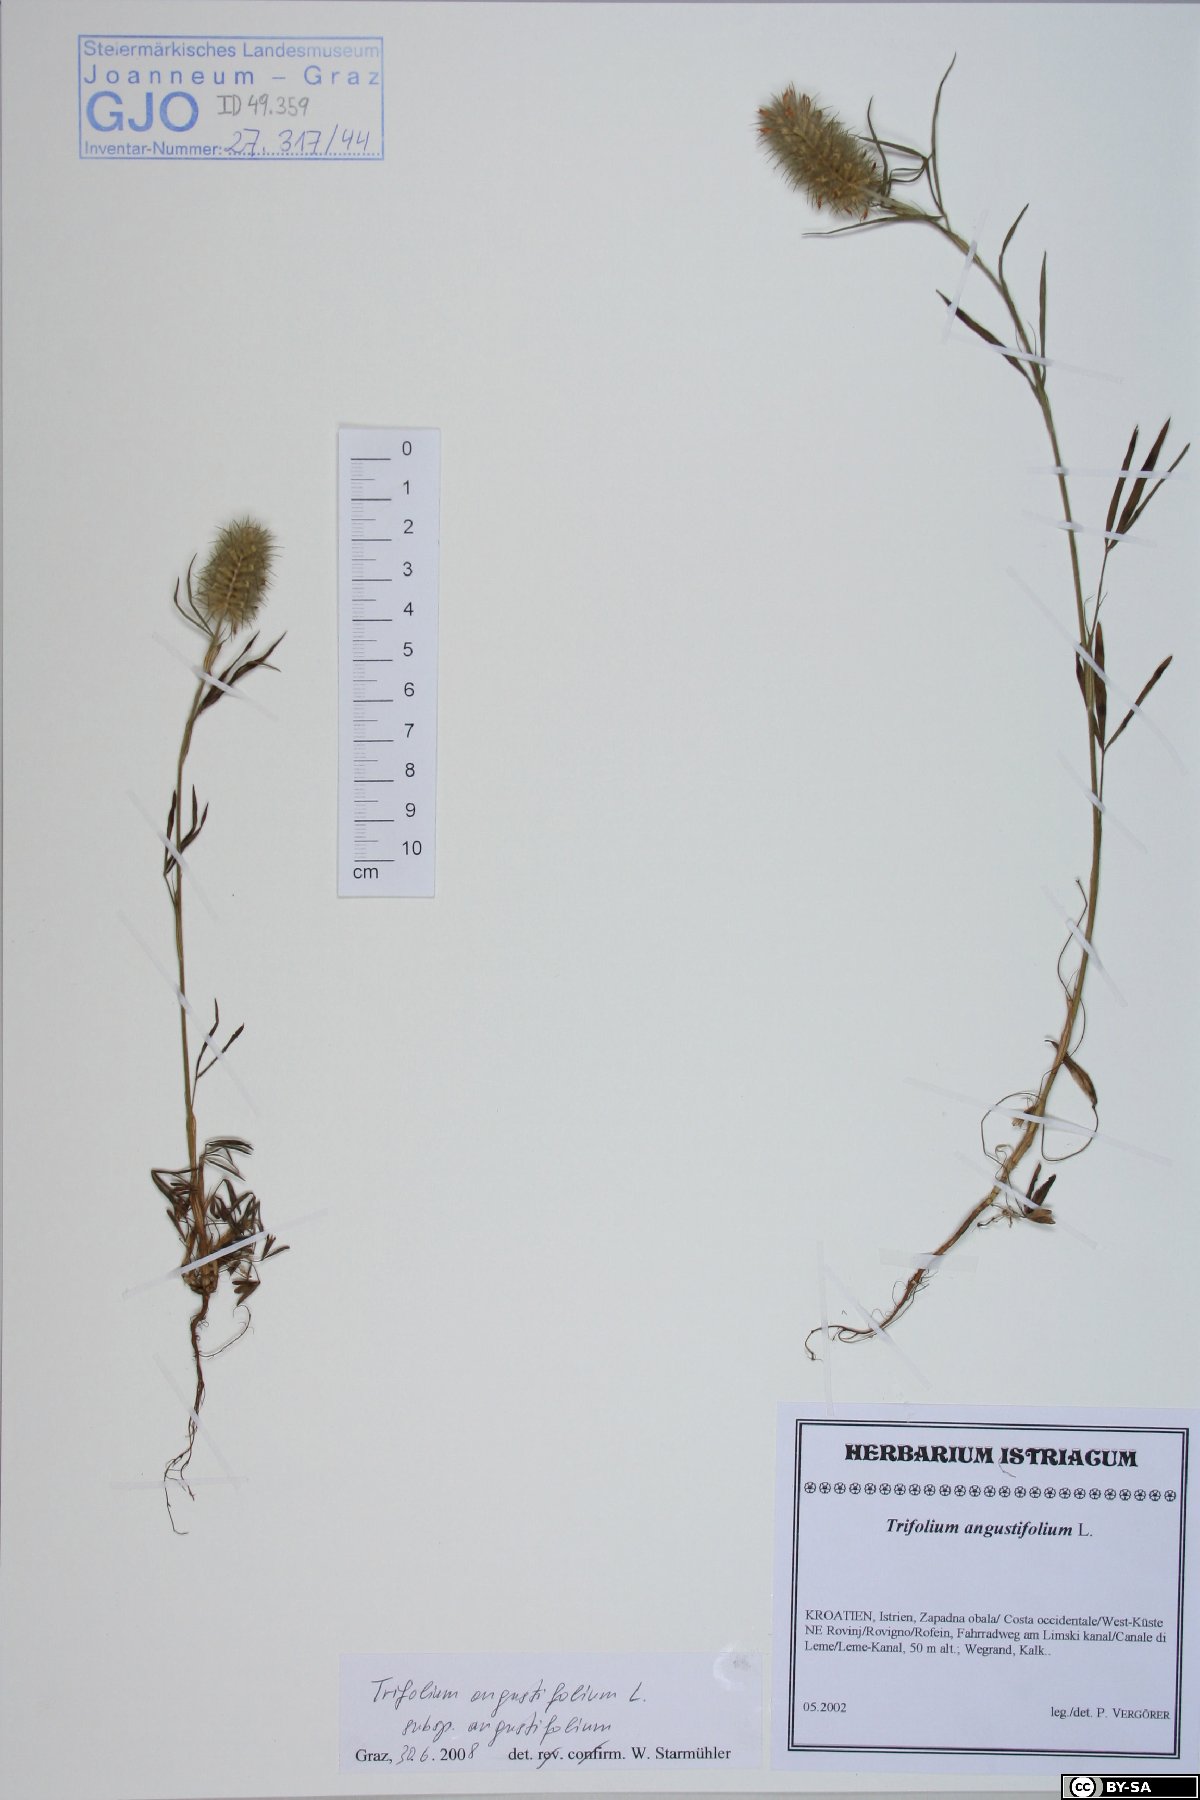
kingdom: Plantae
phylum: Tracheophyta
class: Magnoliopsida
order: Fabales
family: Fabaceae
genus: Trifolium
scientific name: Trifolium angustifolium
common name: Narrow clover
